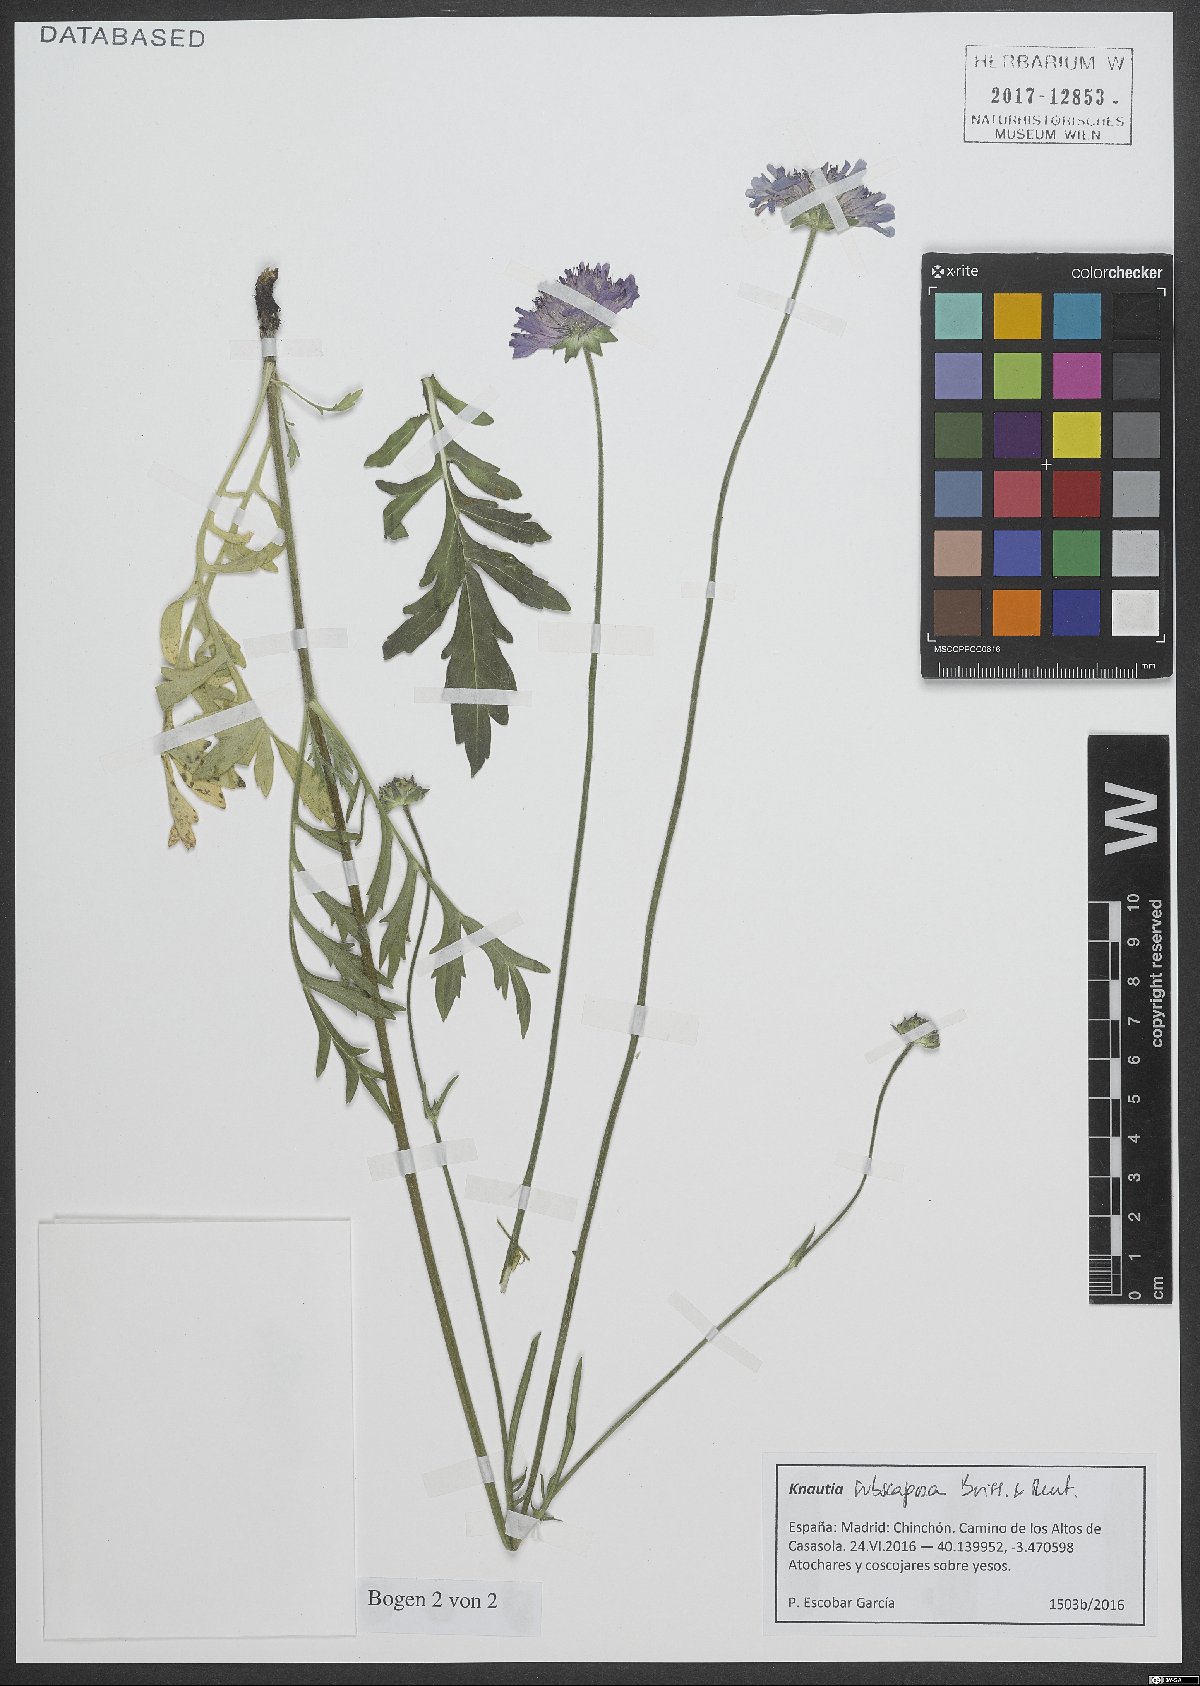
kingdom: Plantae
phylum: Tracheophyta
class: Magnoliopsida
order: Dipsacales
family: Caprifoliaceae
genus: Knautia
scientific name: Knautia subscaposa
